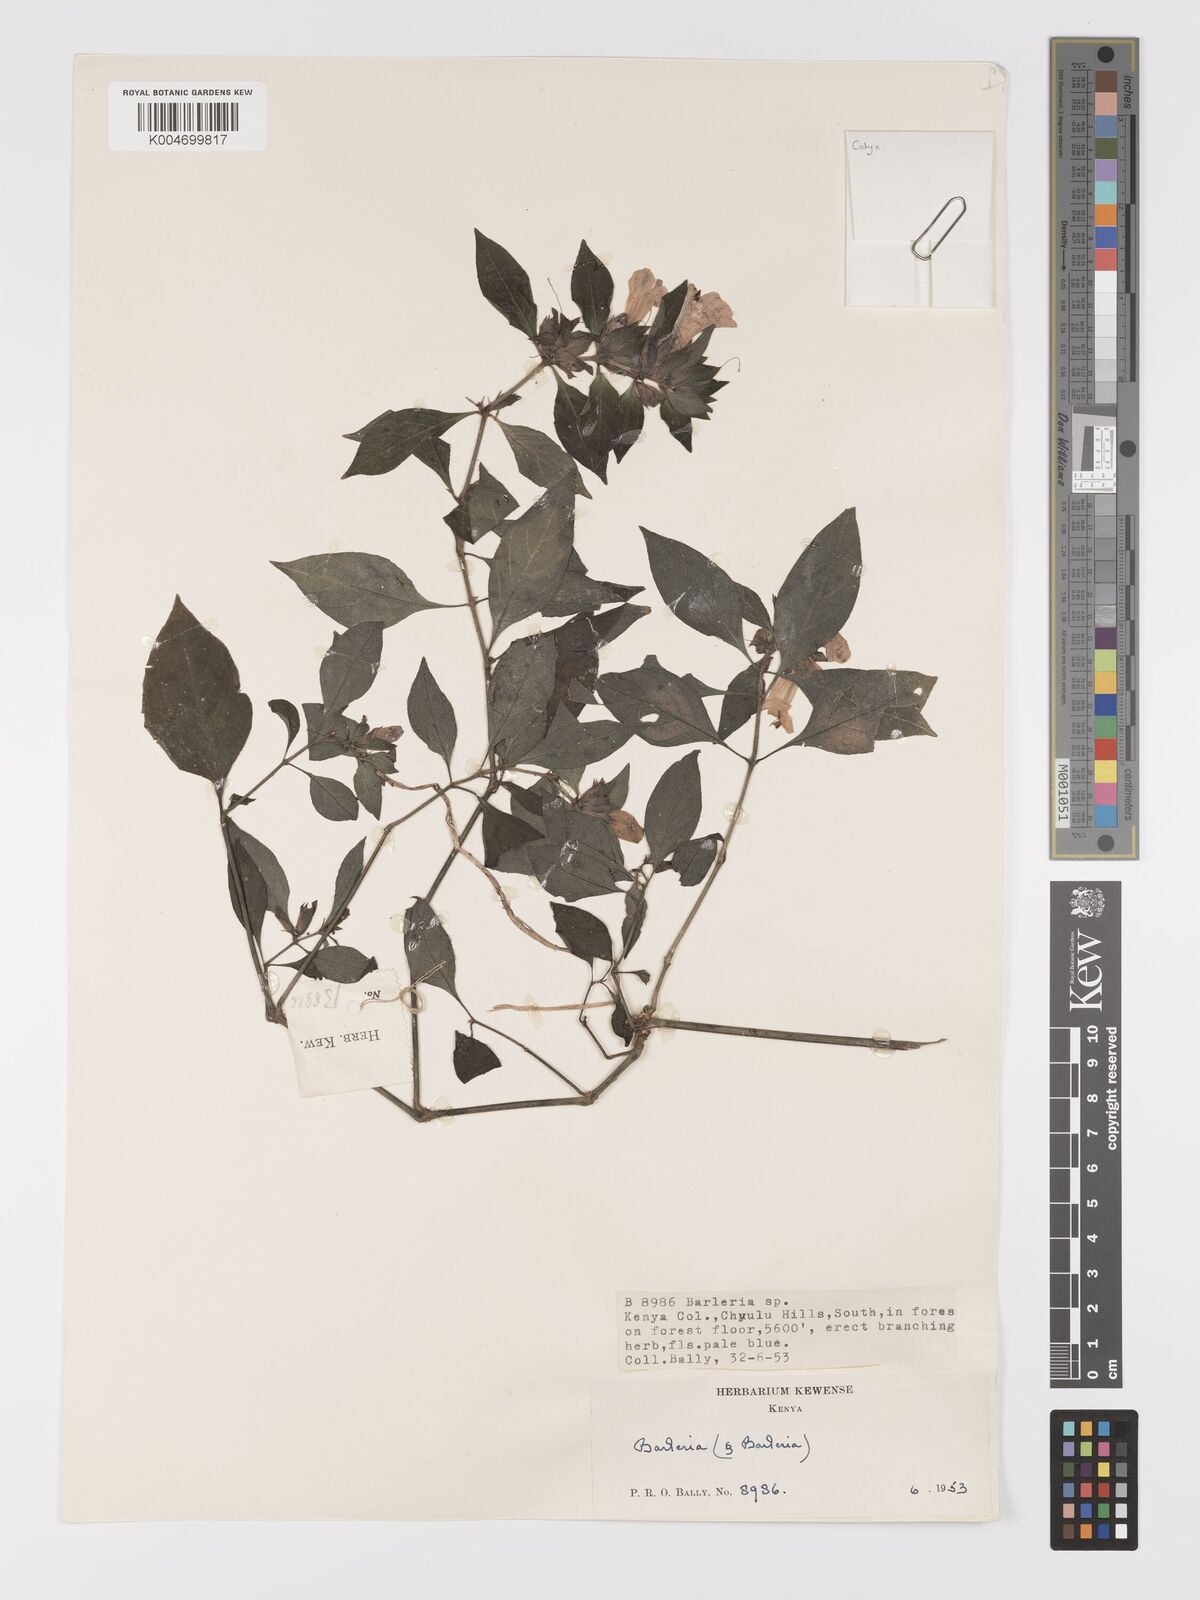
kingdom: Plantae
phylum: Tracheophyta
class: Magnoliopsida
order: Lamiales
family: Acanthaceae
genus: Barleria
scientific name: Barleria ventricosa
